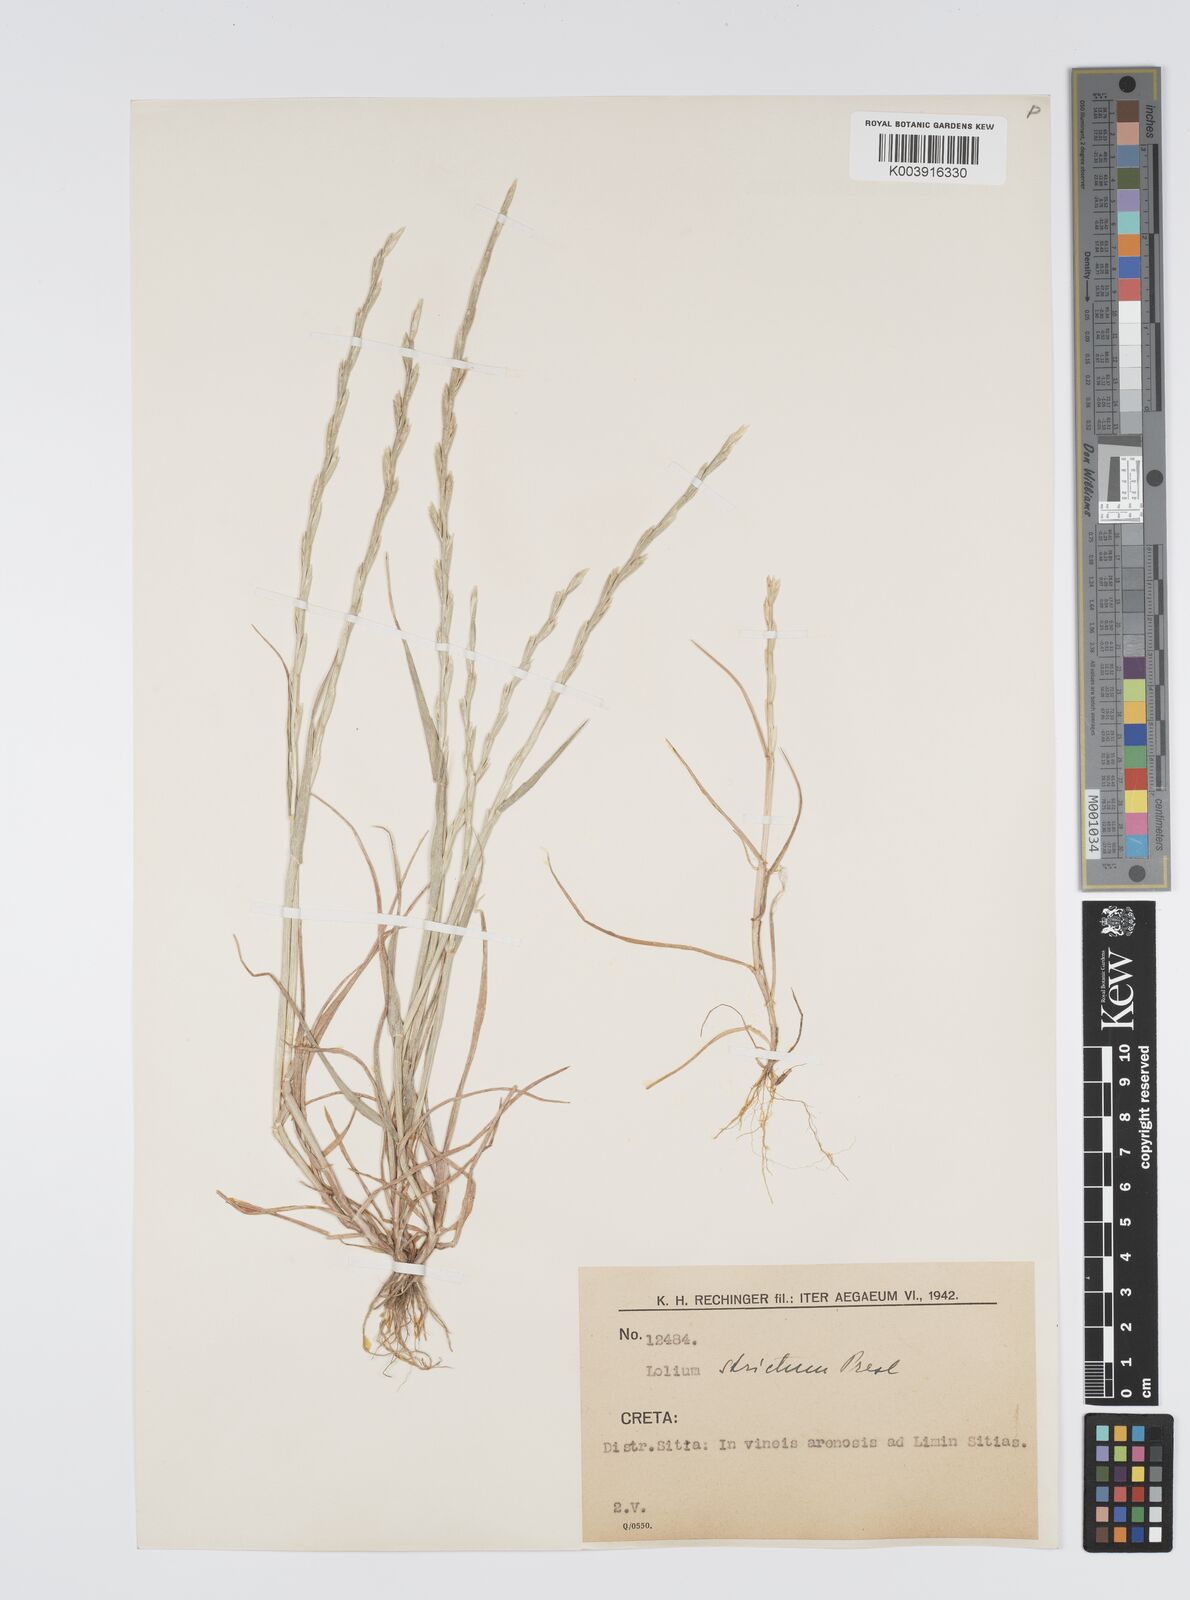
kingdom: Plantae
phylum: Tracheophyta
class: Liliopsida
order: Poales
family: Poaceae
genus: Lolium
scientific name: Lolium rigidum
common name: Wimmera ryegrass
